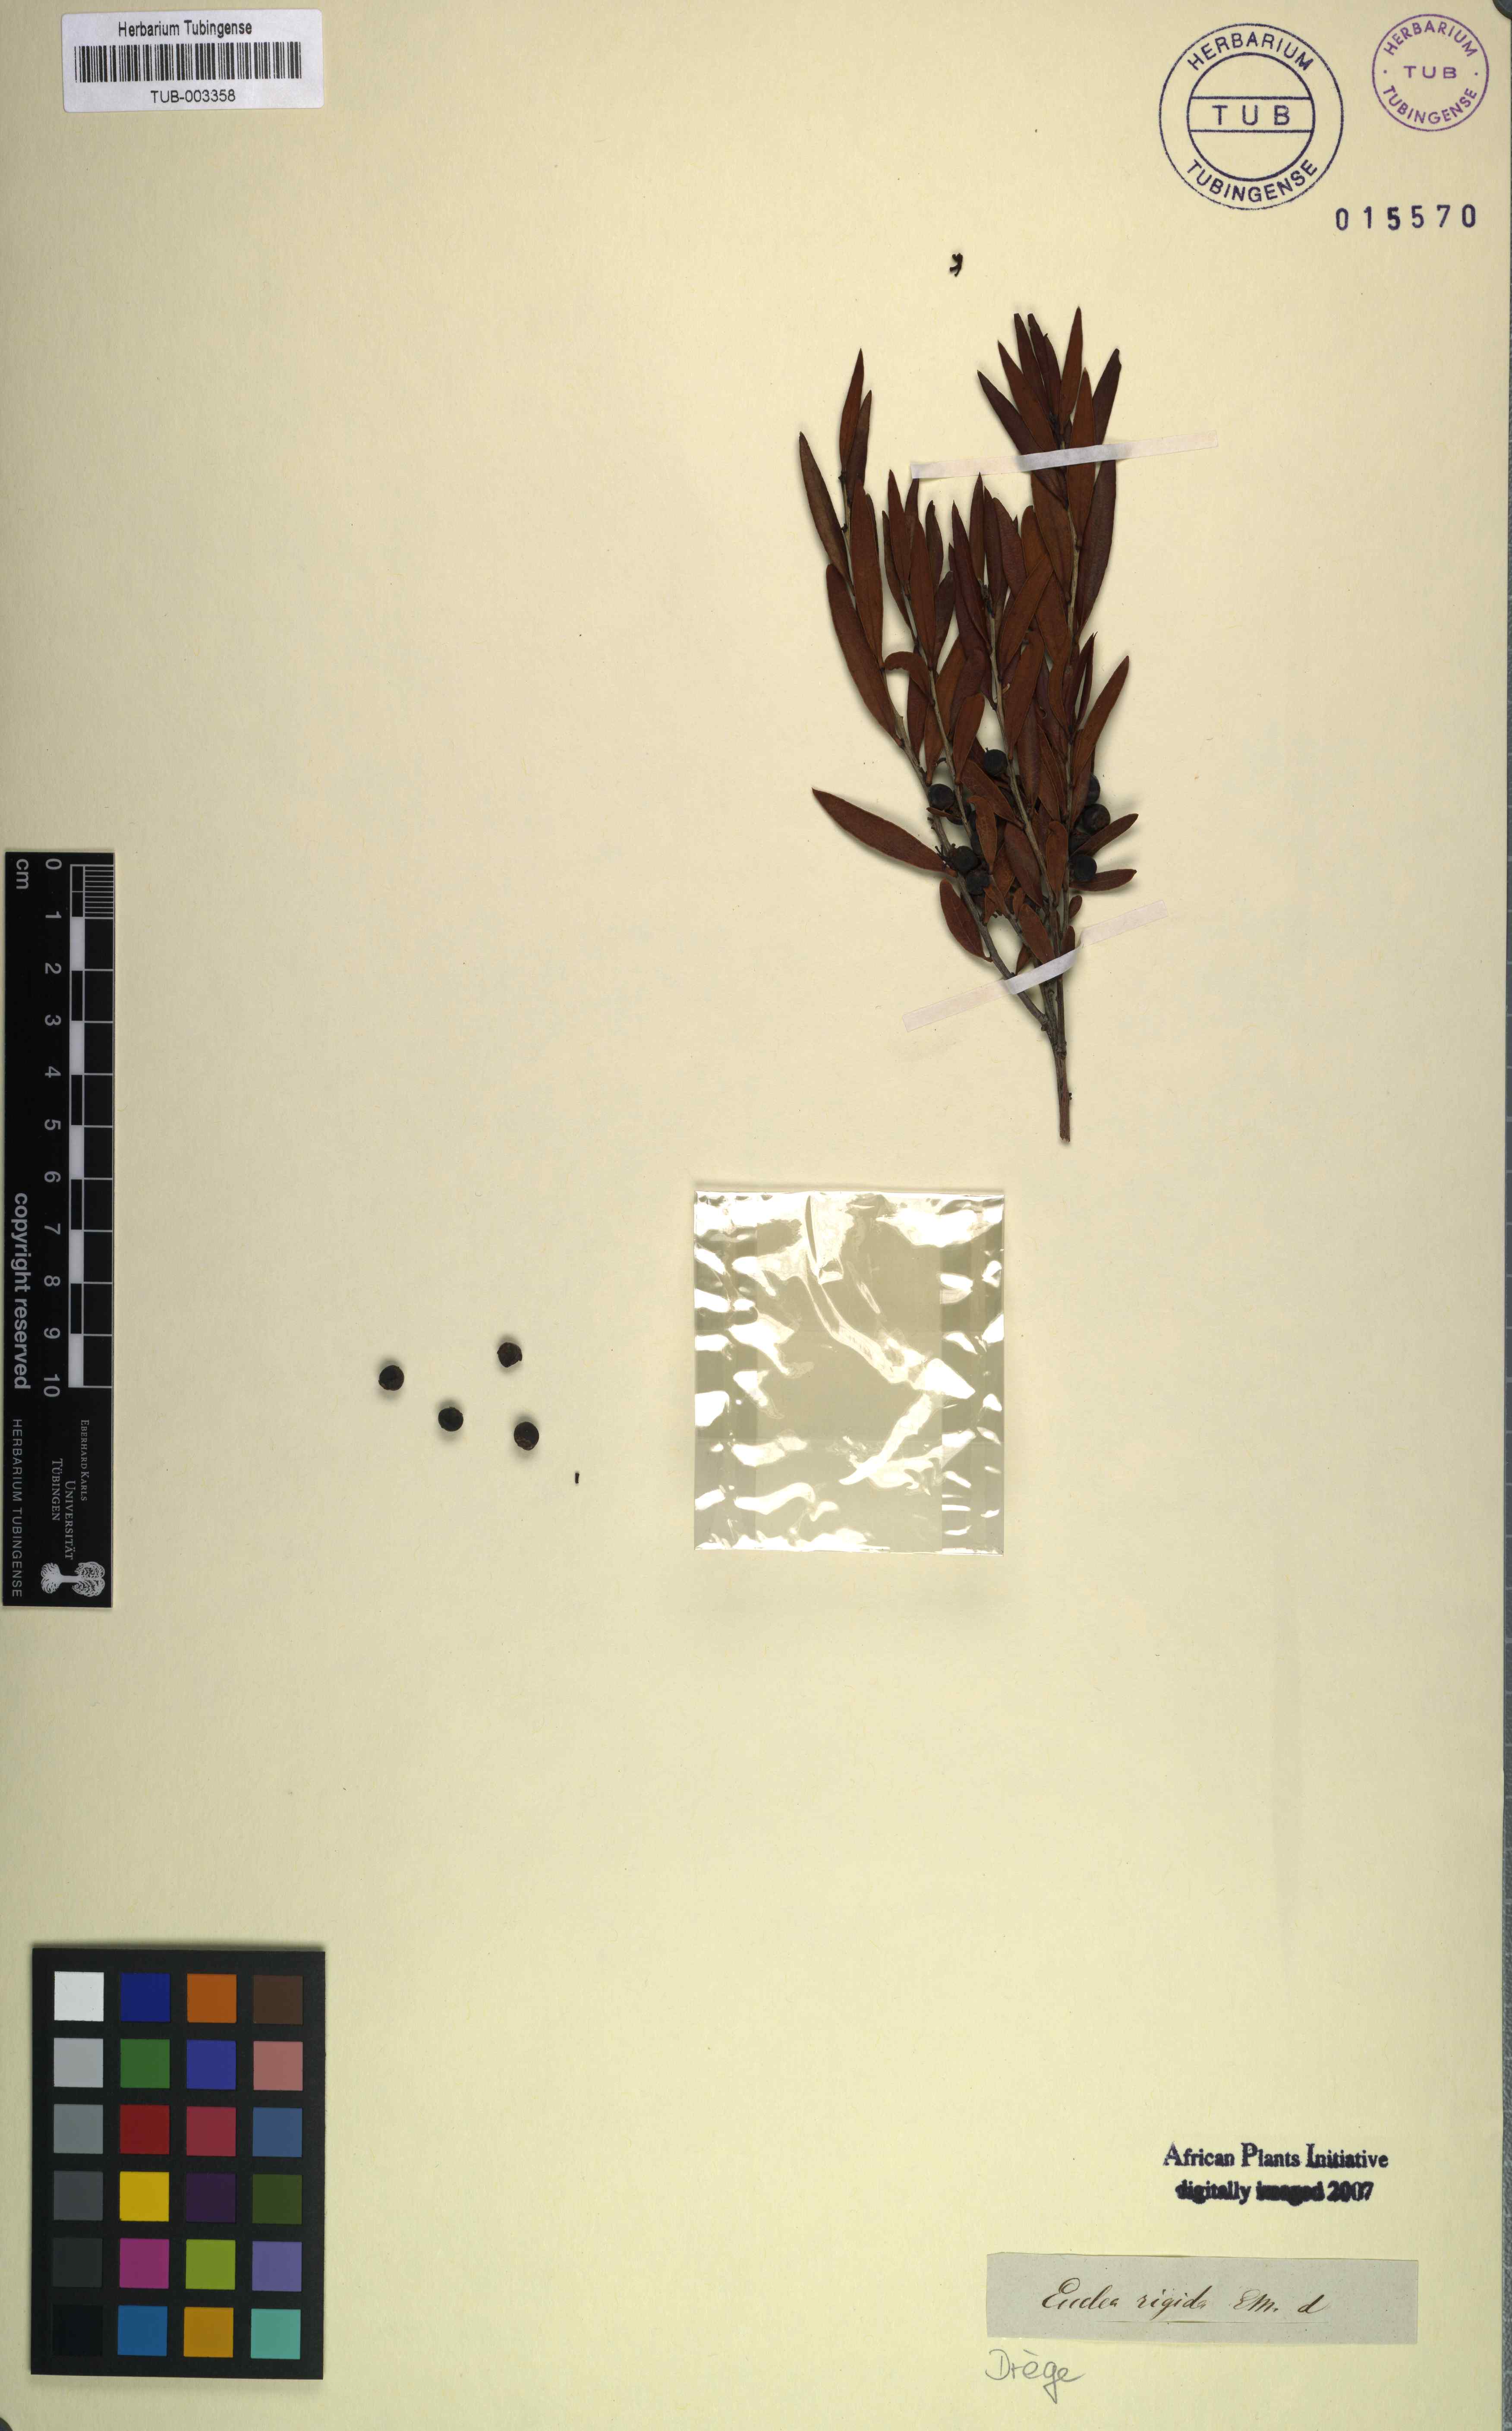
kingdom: Plantae
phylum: Tracheophyta
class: Magnoliopsida
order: Ericales
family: Ebenaceae
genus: Euclea
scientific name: Euclea lancea
